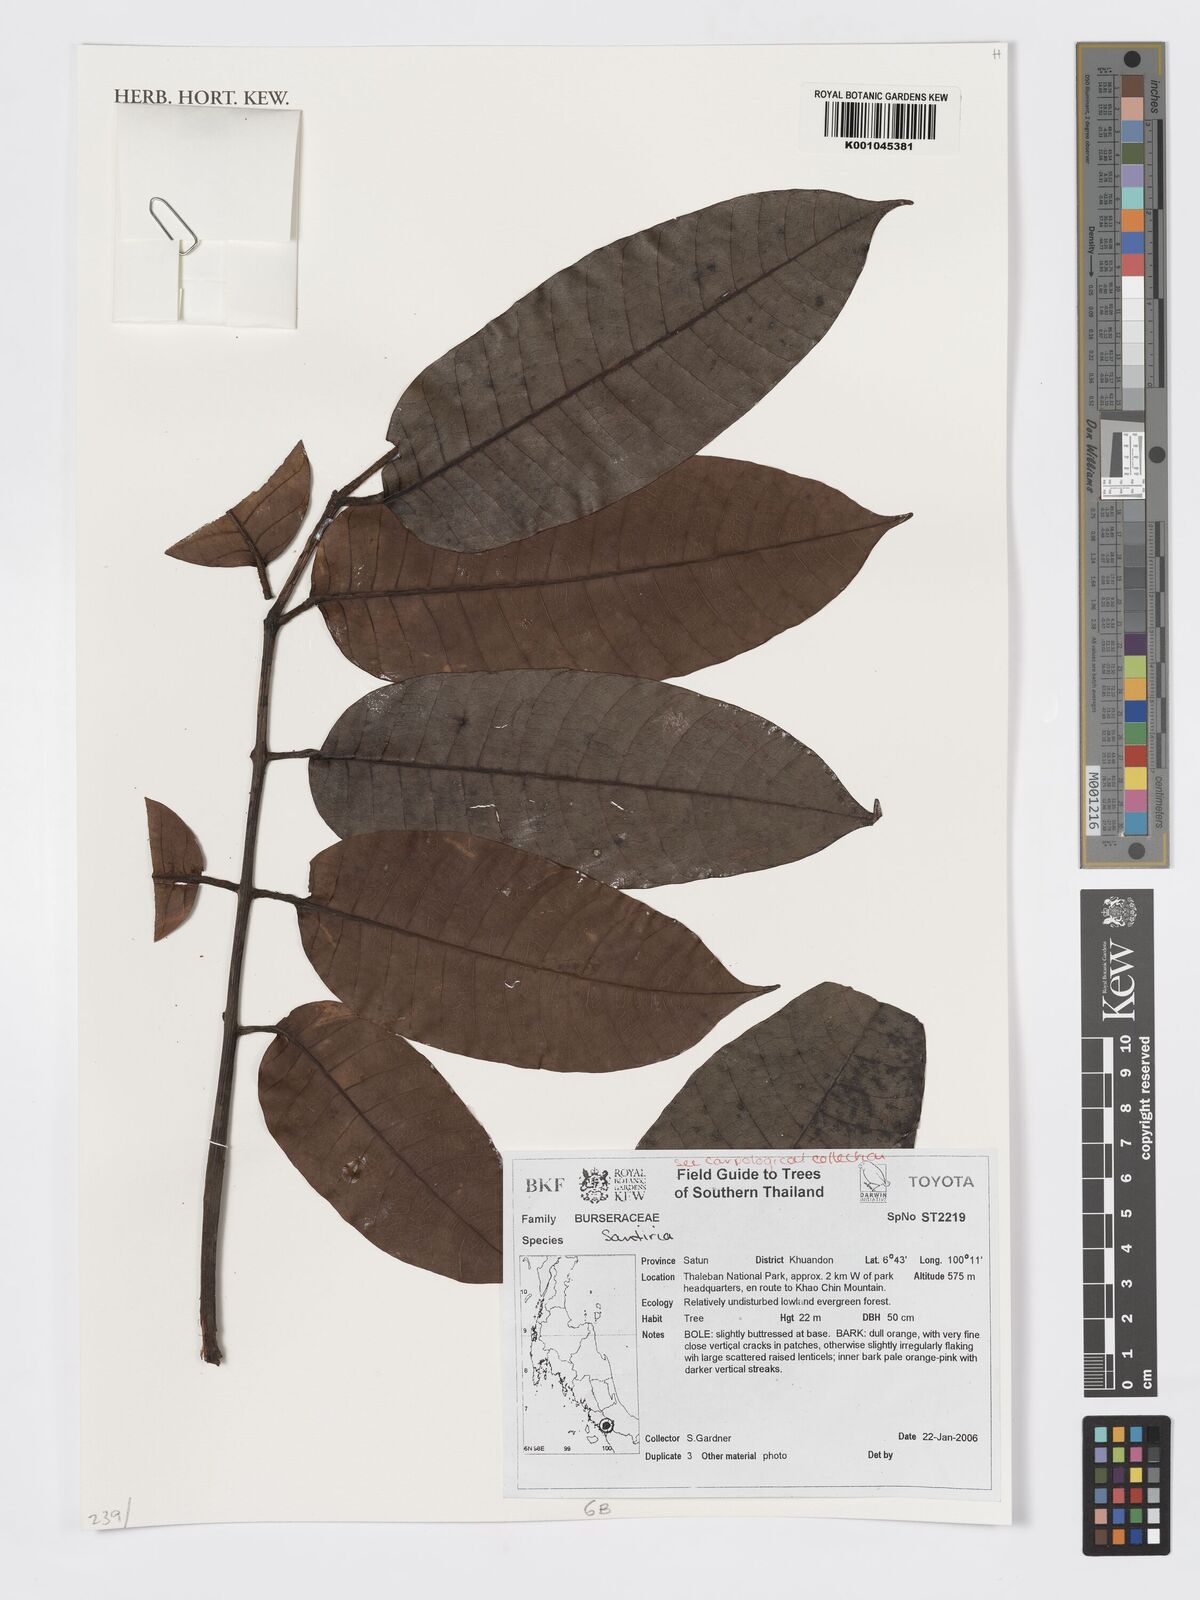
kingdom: Plantae
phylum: Tracheophyta
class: Magnoliopsida
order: Sapindales
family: Burseraceae
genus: Santiria
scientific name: Santiria
